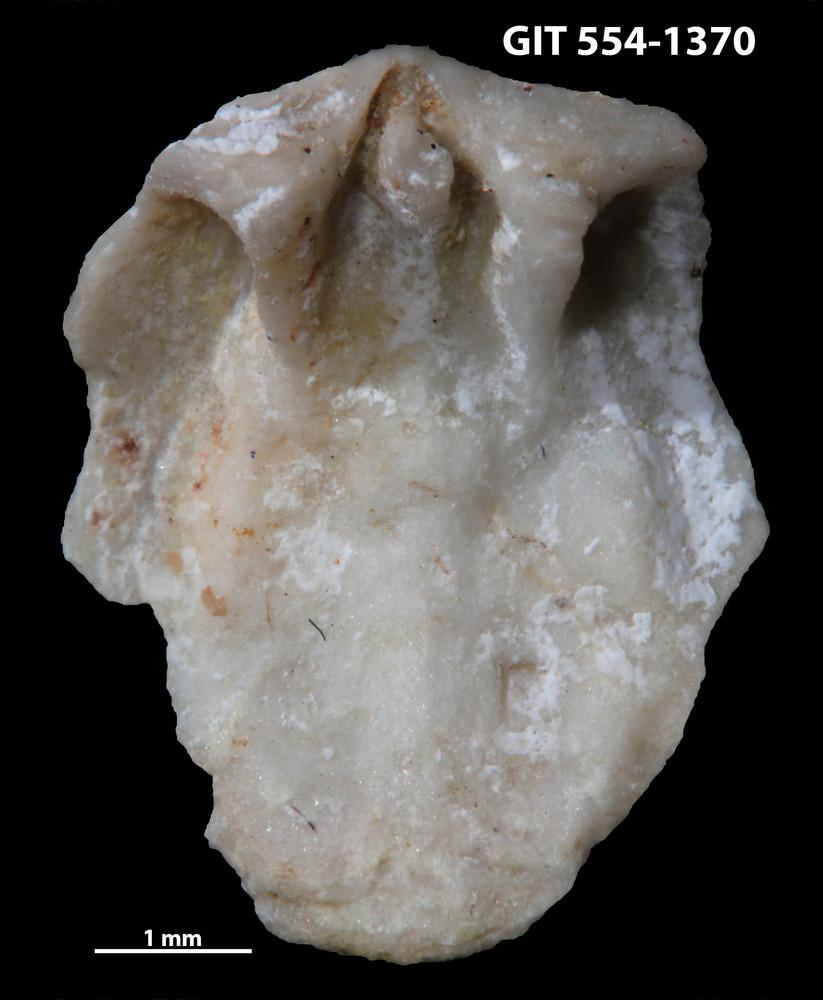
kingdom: Animalia
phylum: Brachiopoda
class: Rhynchonellata
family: Dalmanellidae
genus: Dalmanella
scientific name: Dalmanella cyclica
